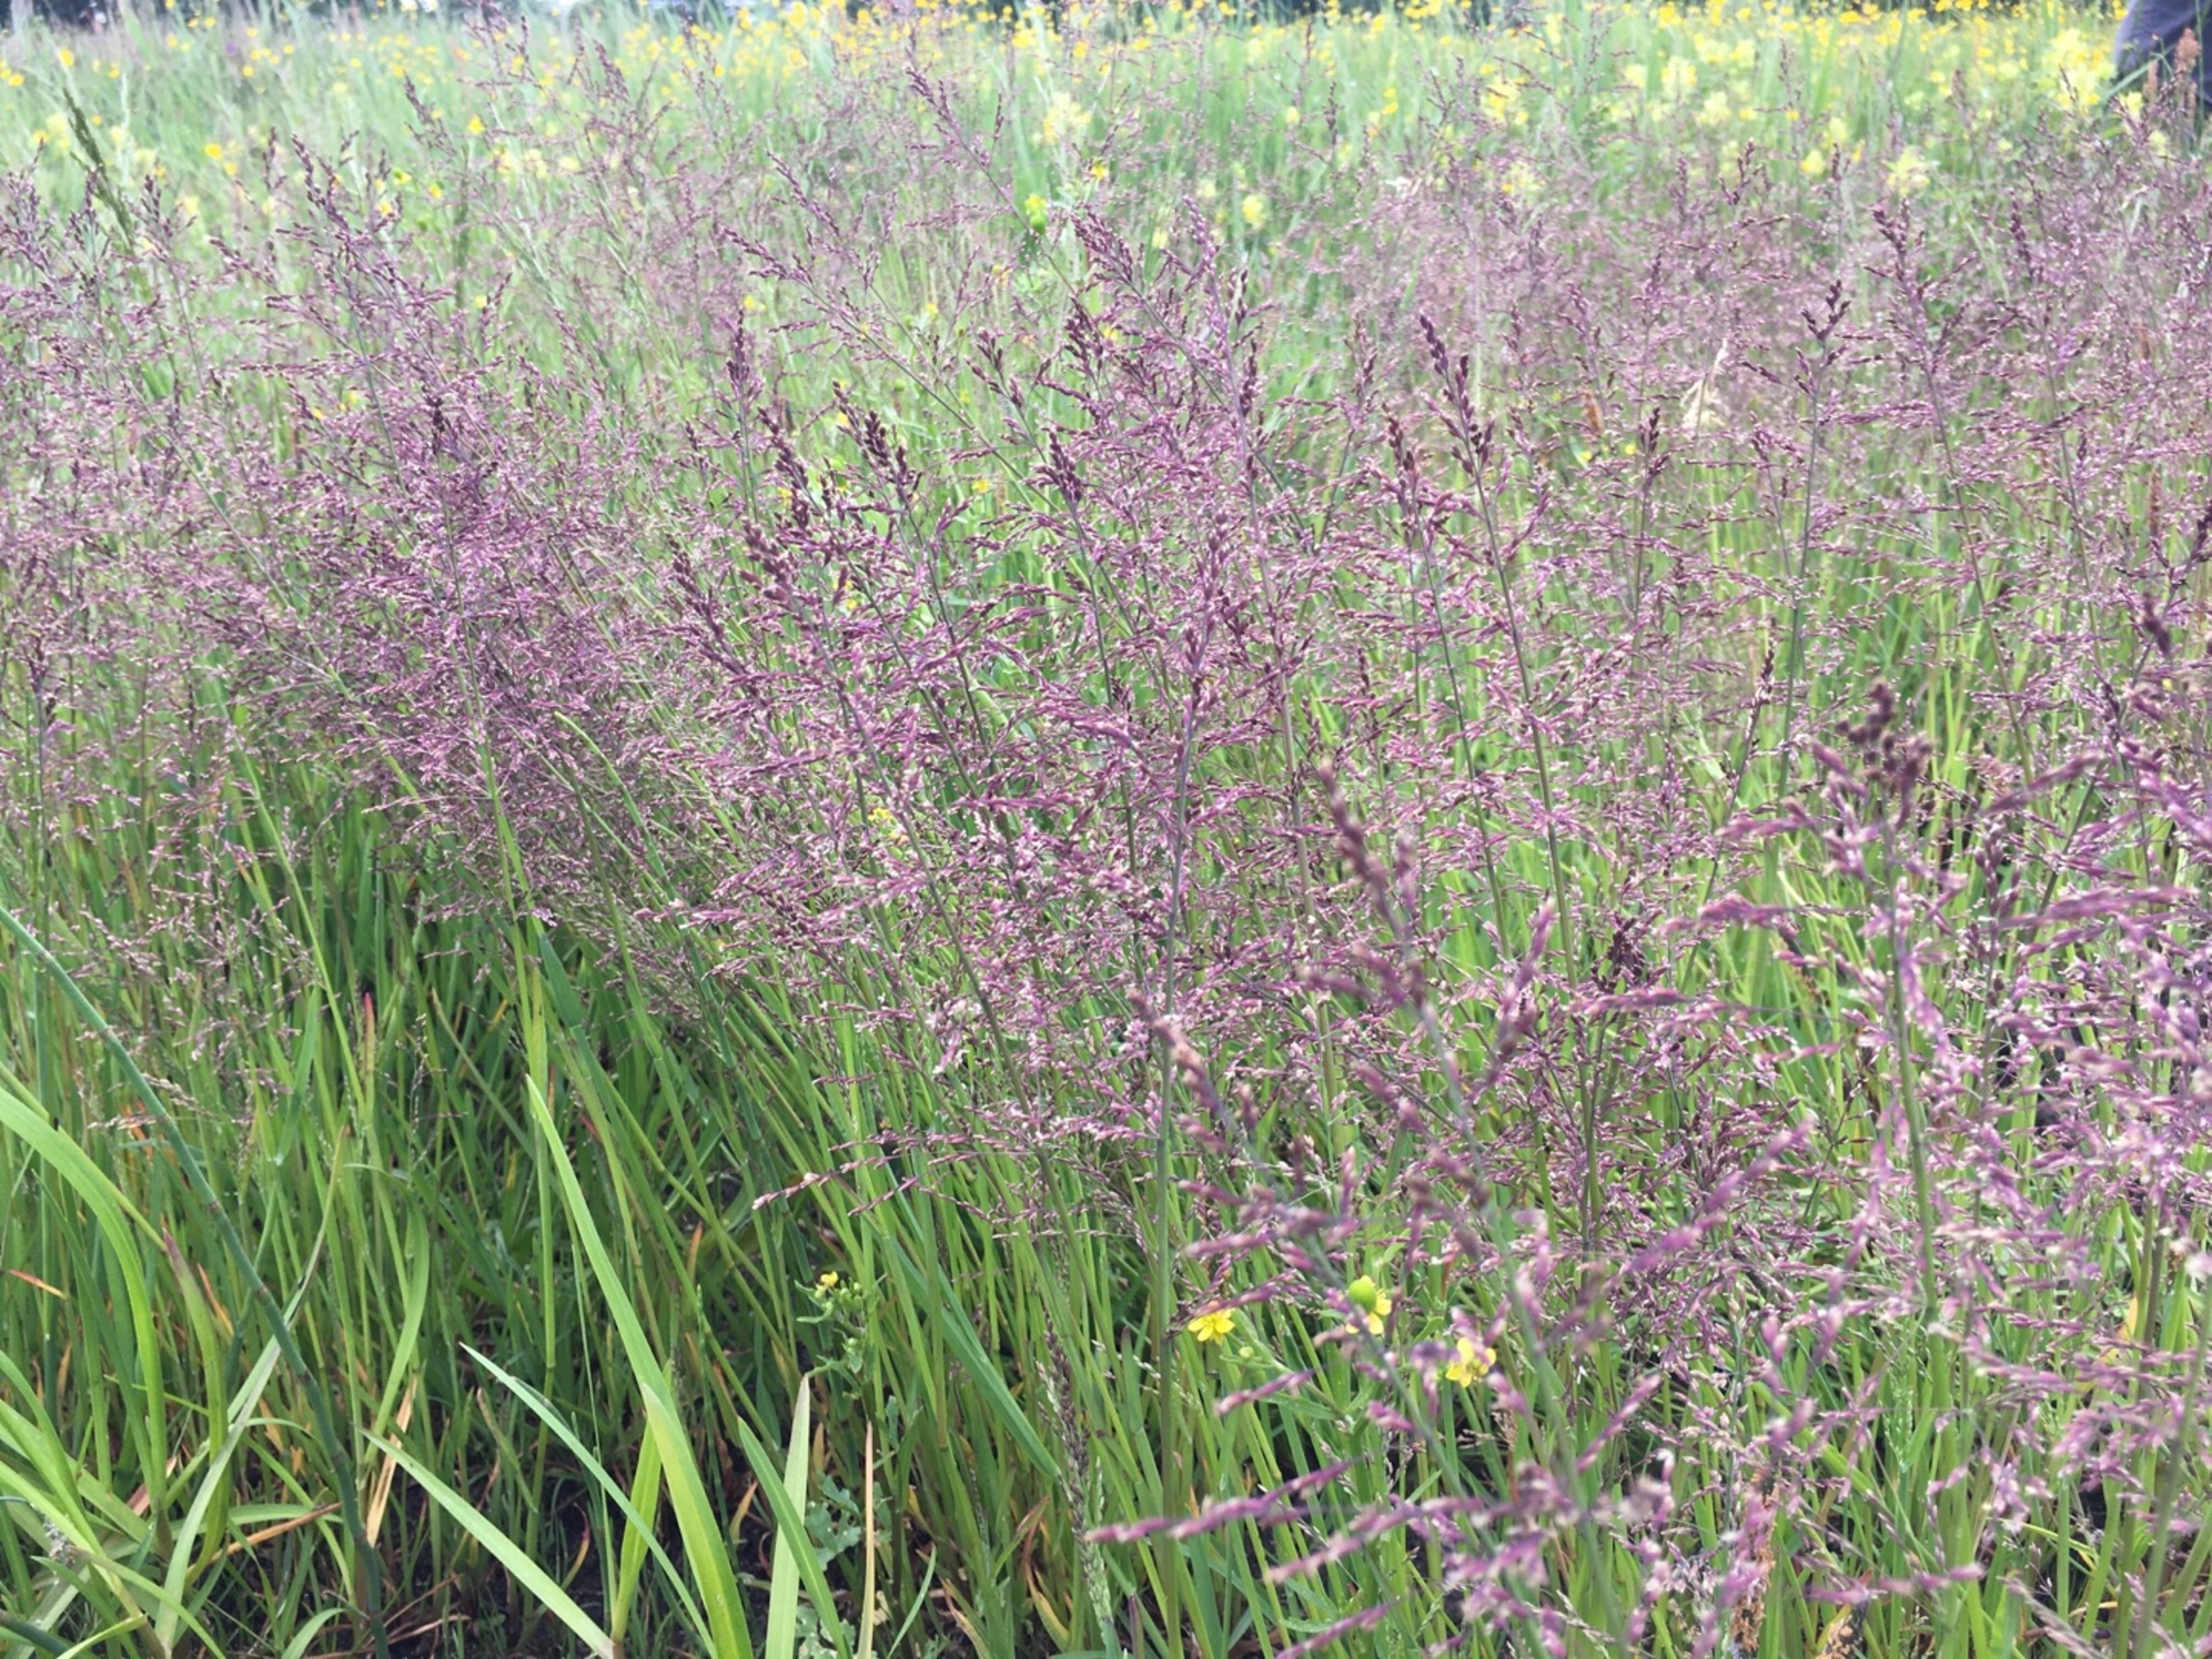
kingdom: Plantae
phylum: Tracheophyta
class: Liliopsida
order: Poales
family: Poaceae
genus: Catabrosa
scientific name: Catabrosa aquatica
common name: Tæppegræs
